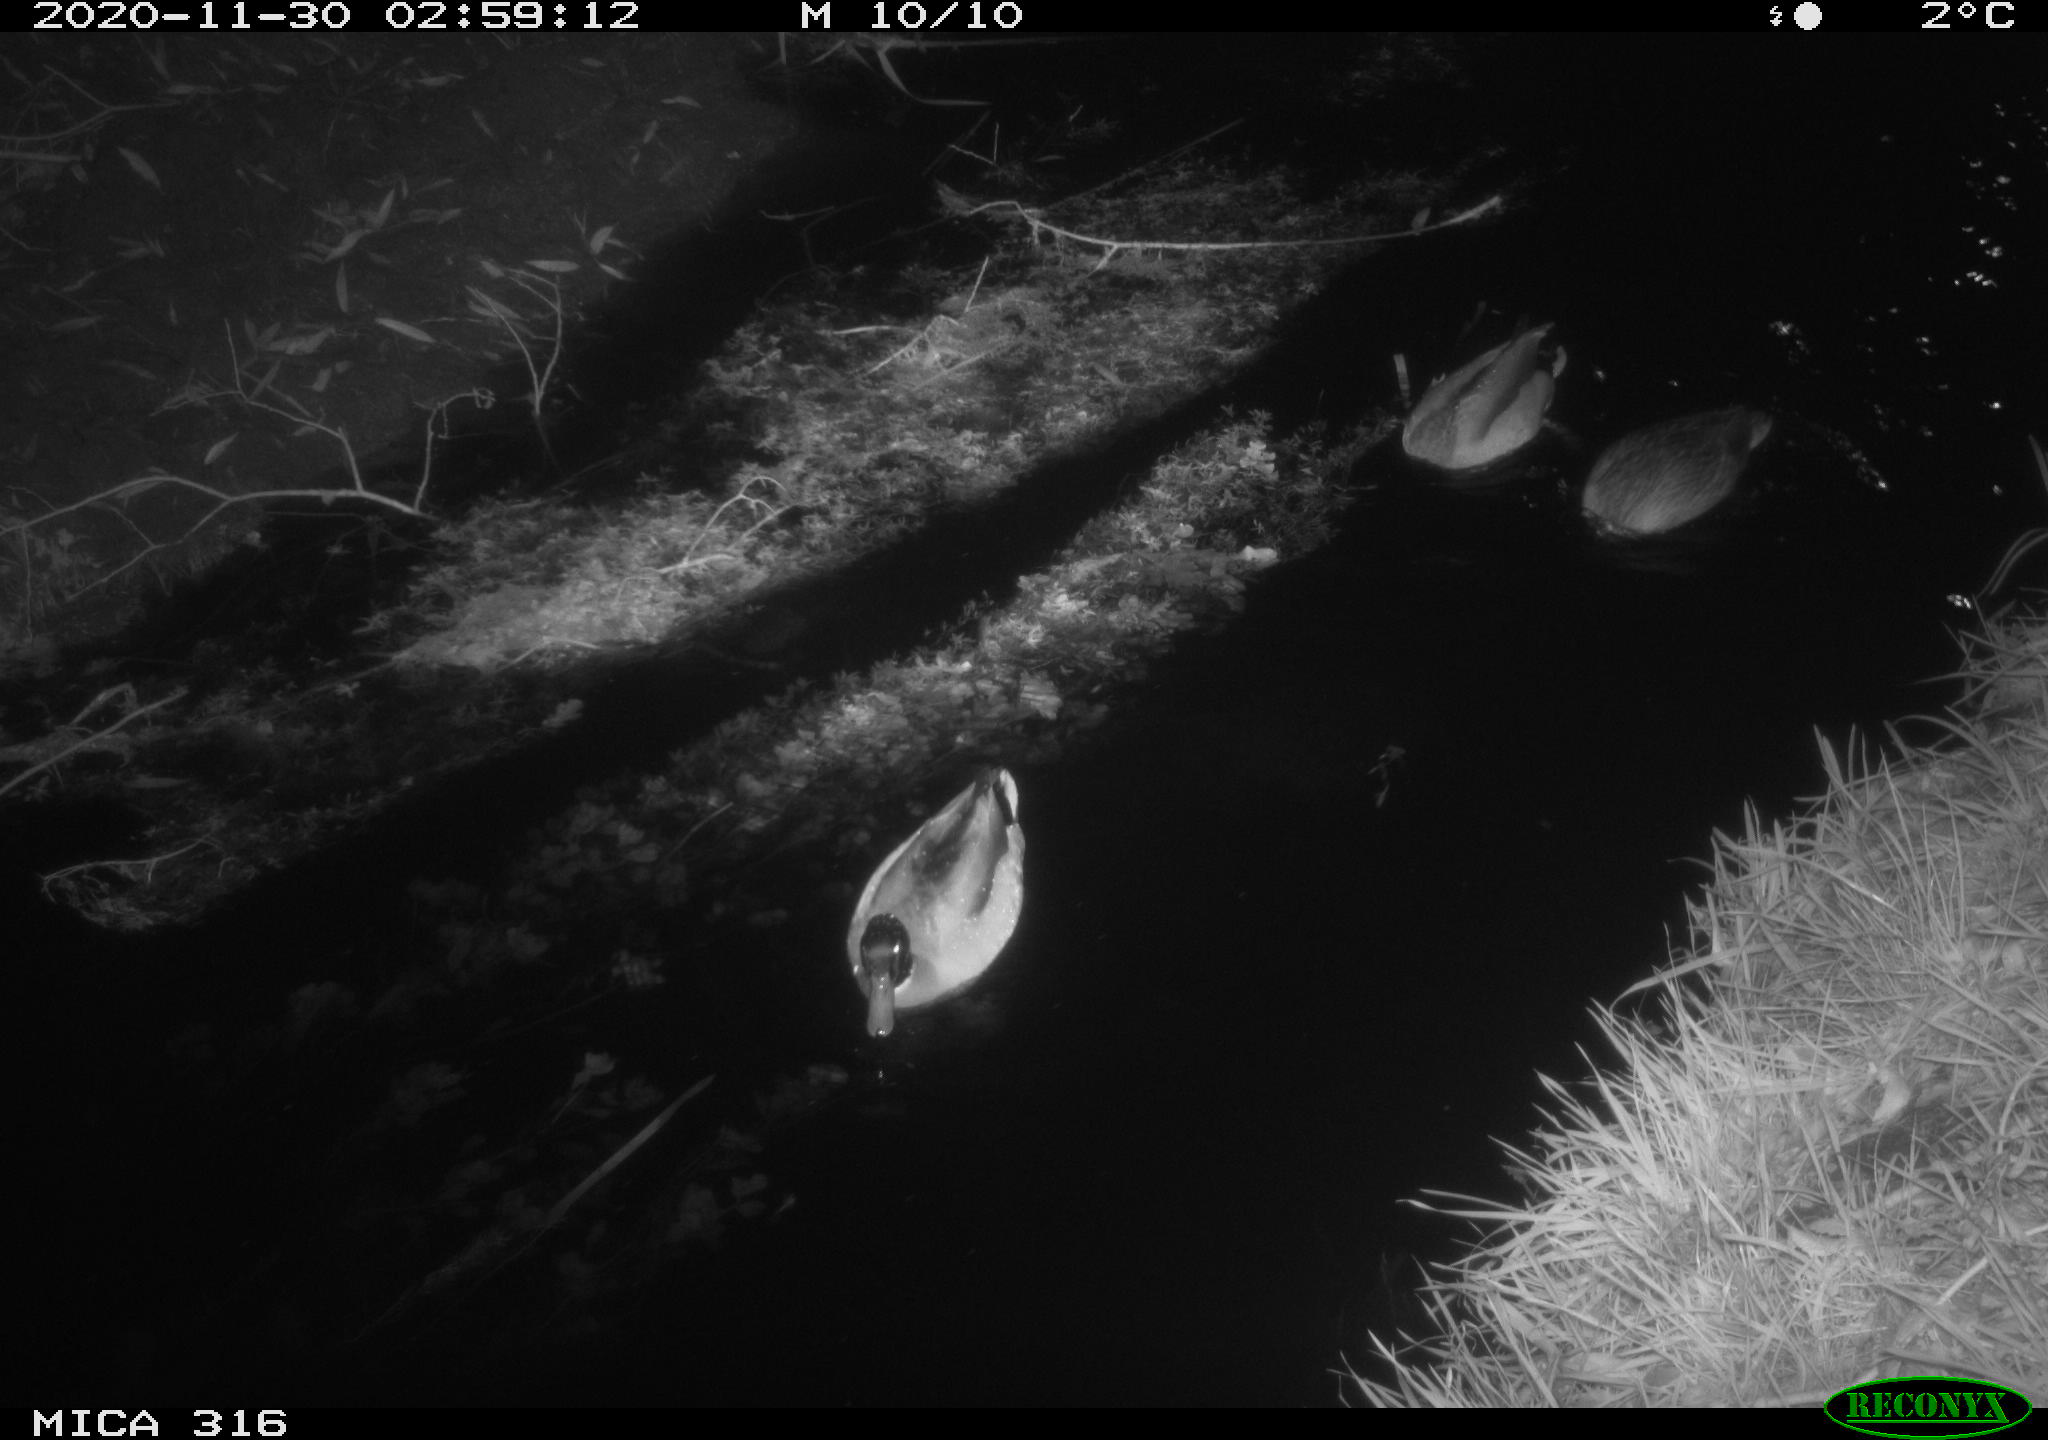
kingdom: Animalia
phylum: Chordata
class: Aves
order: Anseriformes
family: Anatidae
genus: Anas
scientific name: Anas platyrhynchos
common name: Mallard
